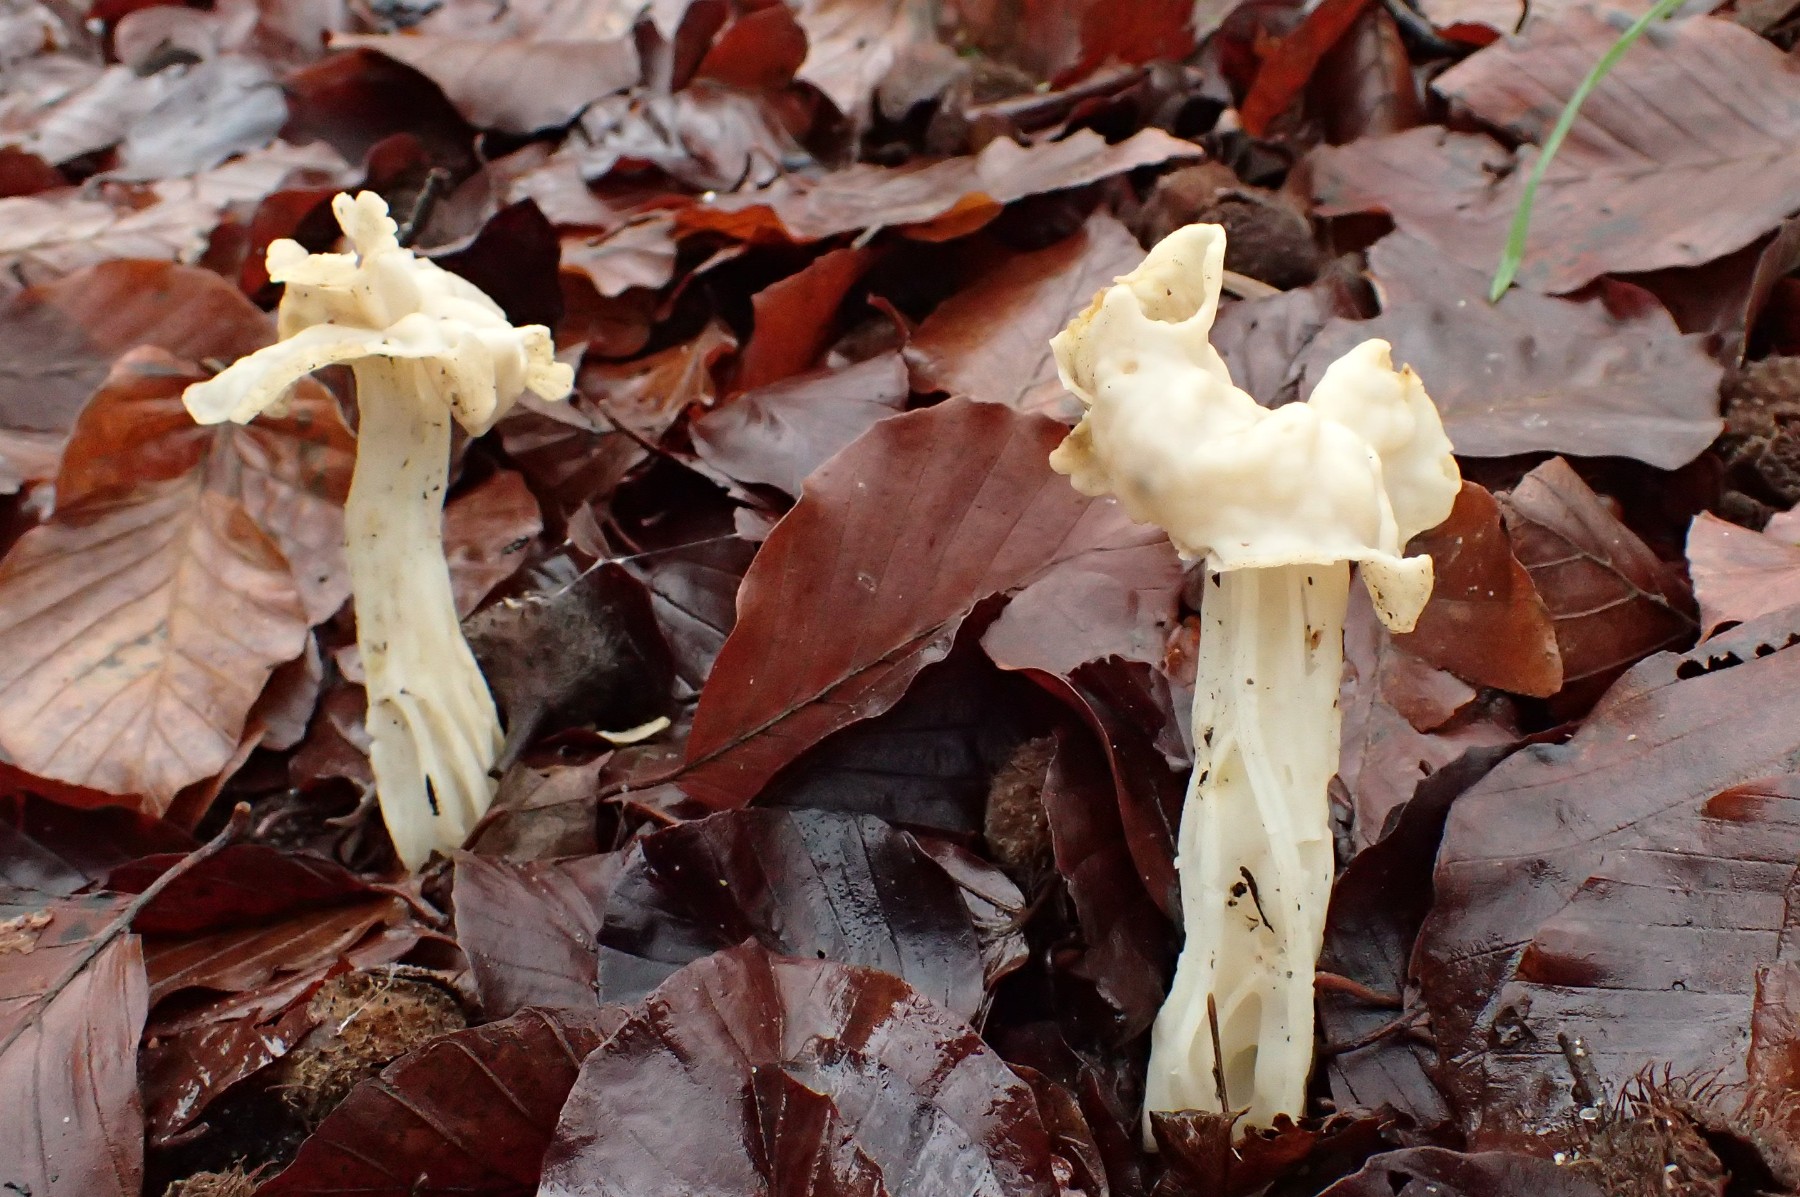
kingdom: Fungi
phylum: Ascomycota
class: Pezizomycetes
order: Pezizales
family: Helvellaceae
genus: Helvella
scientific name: Helvella crispa
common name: kruset foldhat
